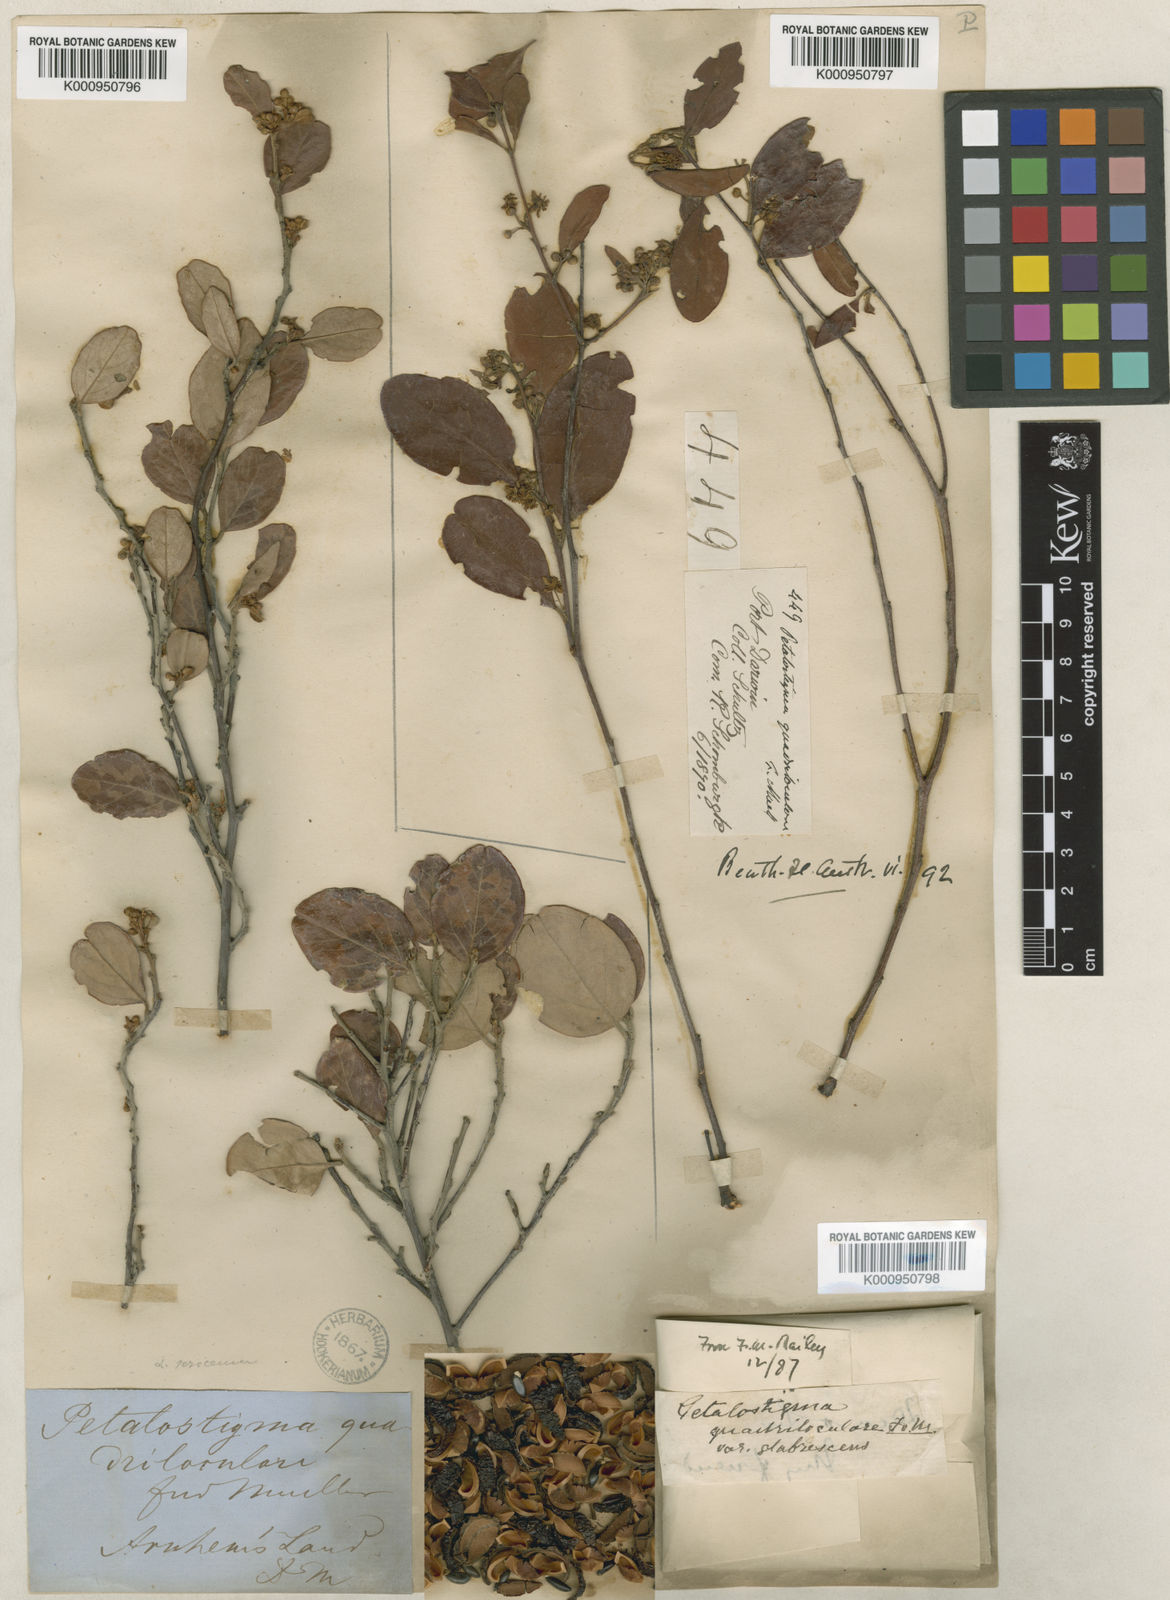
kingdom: Plantae
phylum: Tracheophyta
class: Magnoliopsida
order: Malpighiales
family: Picrodendraceae
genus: Petalostigma
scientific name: Petalostigma quadriloculare
